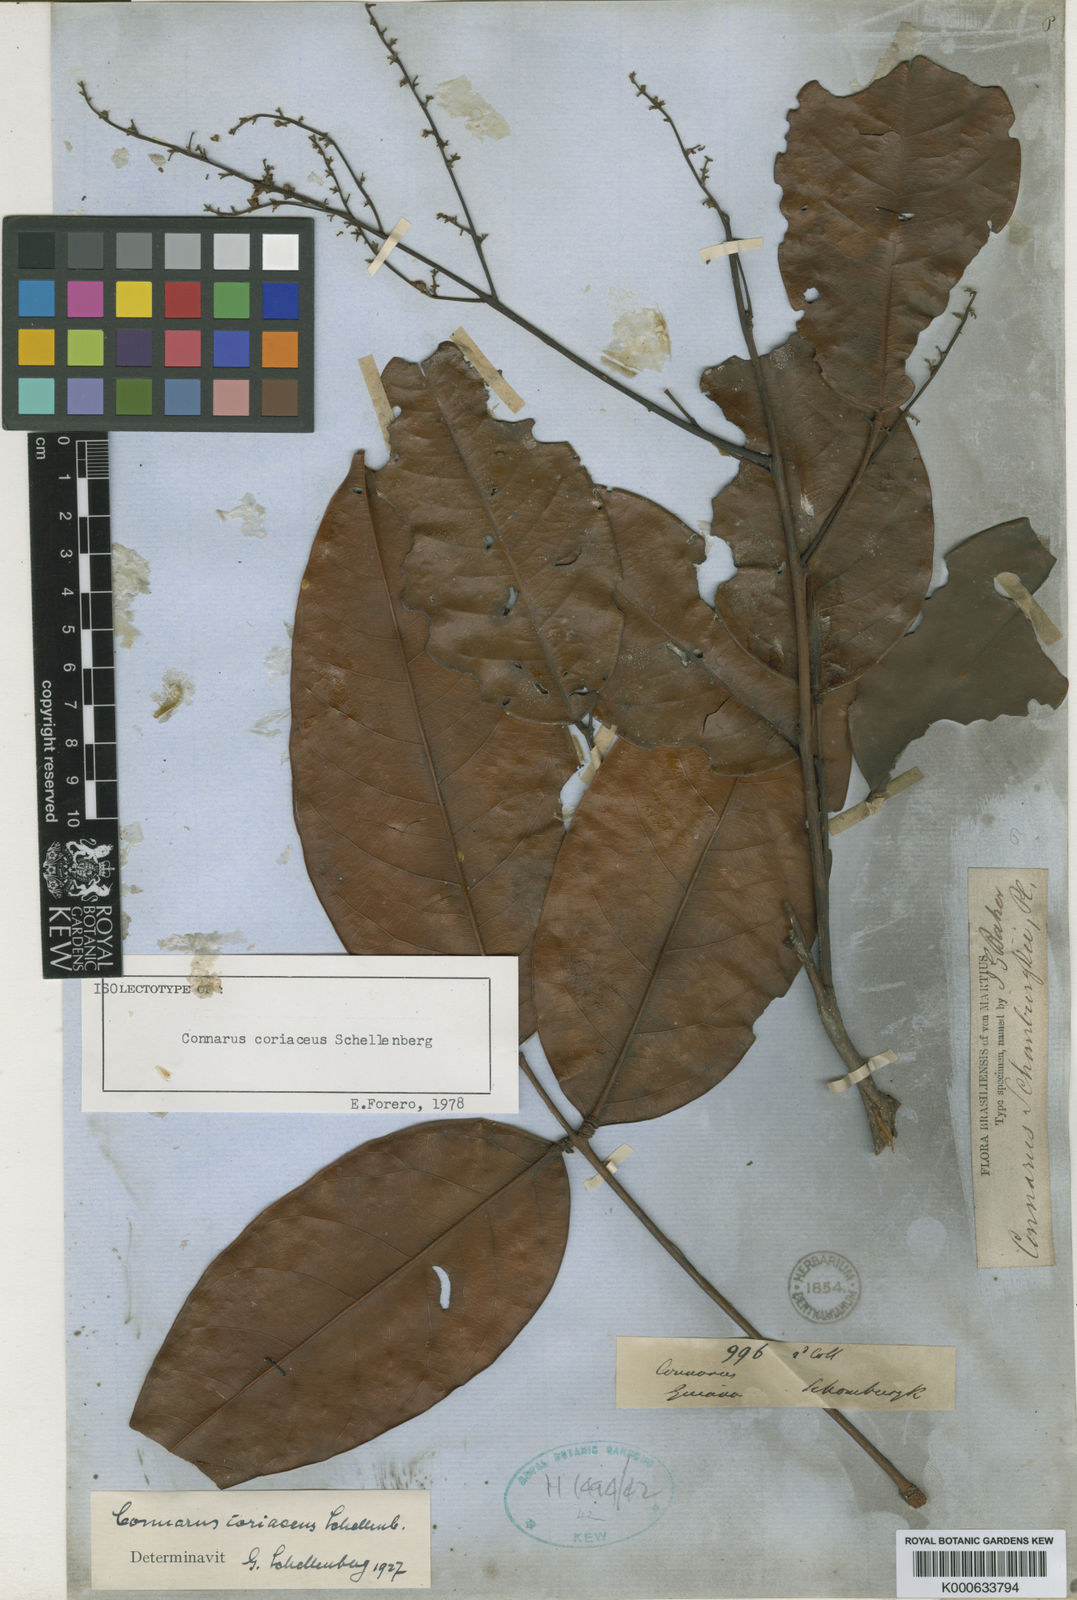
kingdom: Plantae
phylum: Tracheophyta
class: Magnoliopsida
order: Oxalidales
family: Connaraceae
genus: Connarus
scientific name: Connarus coriaceus
